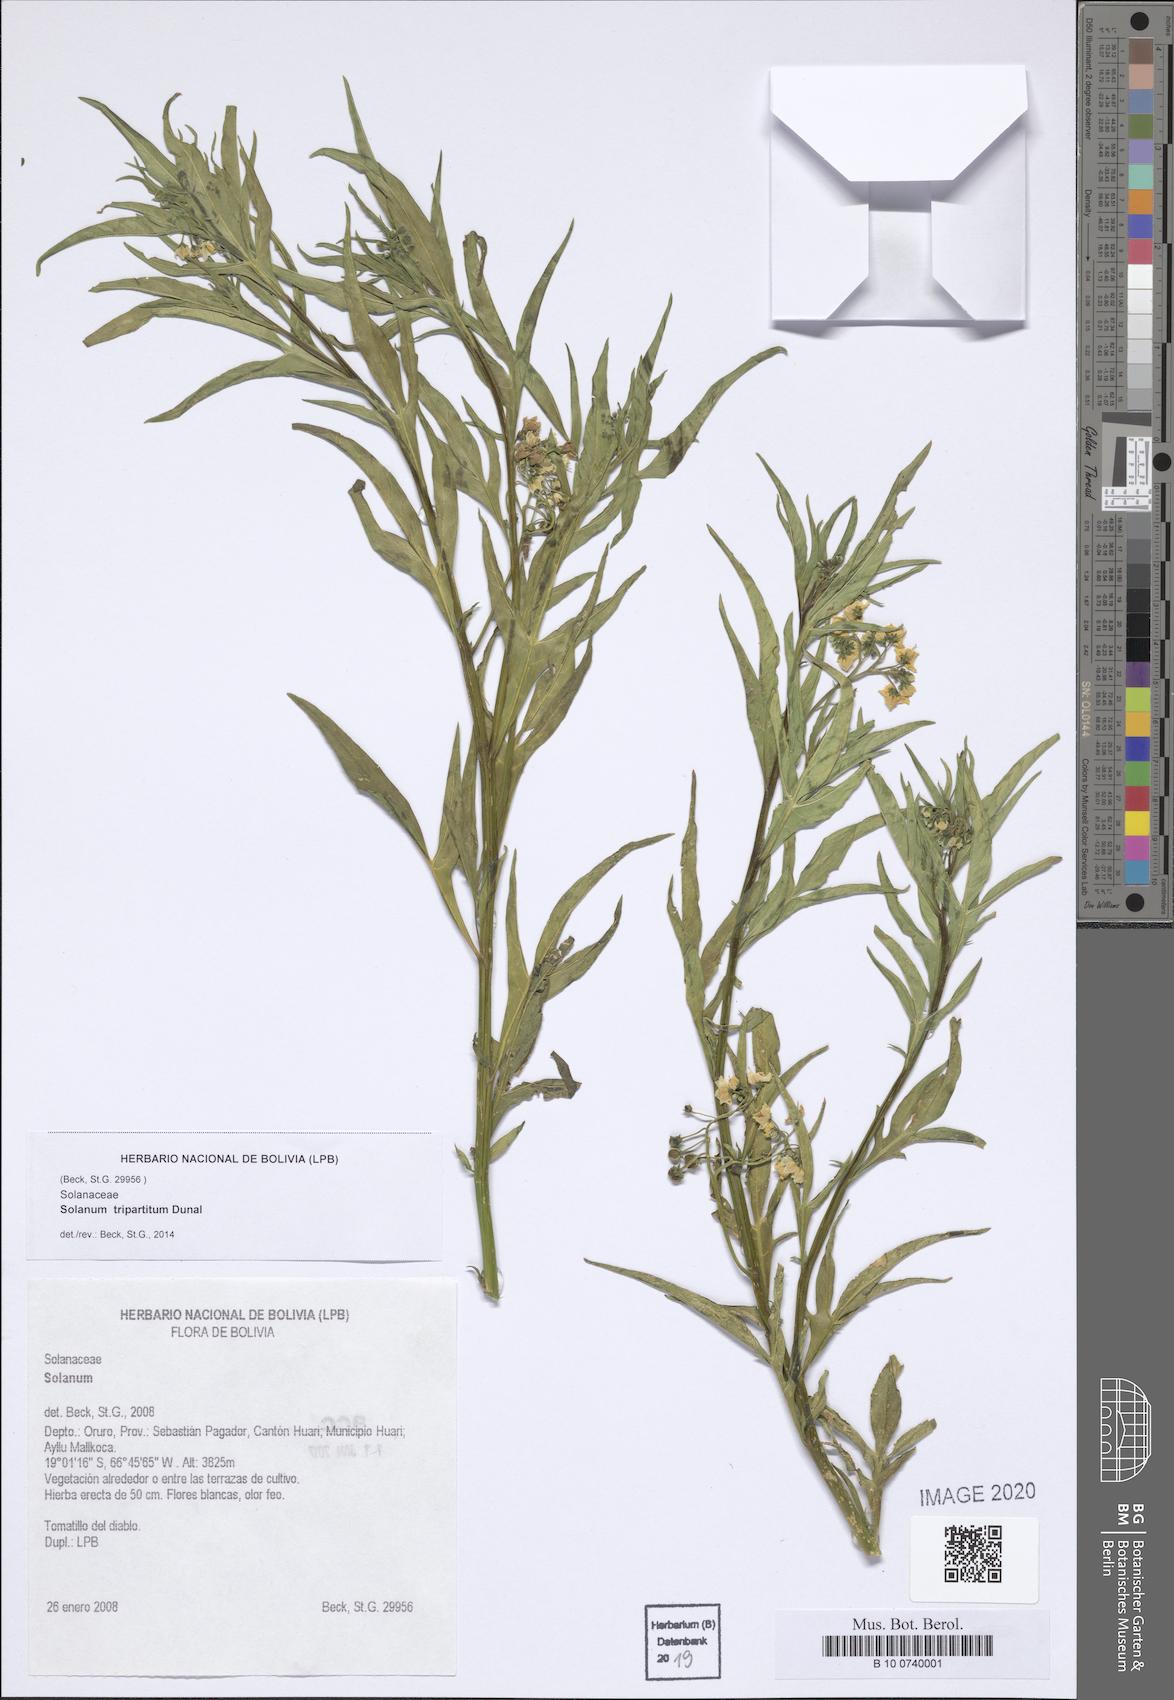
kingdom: Plantae
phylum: Tracheophyta
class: Magnoliopsida
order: Solanales
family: Solanaceae
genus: Solanum
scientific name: Solanum tripartitum
